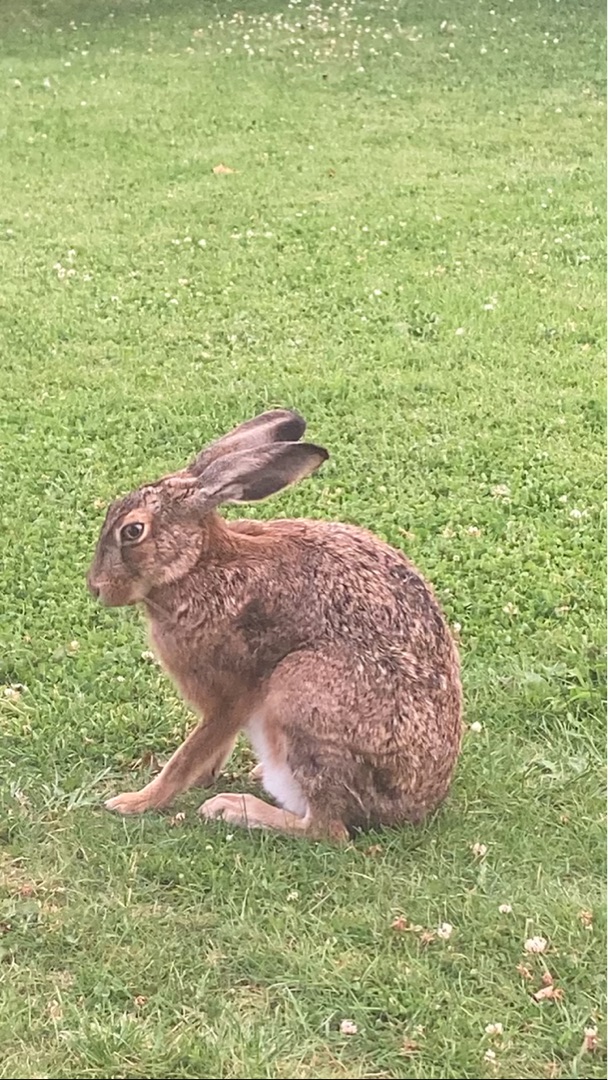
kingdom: Animalia
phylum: Chordata
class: Mammalia
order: Lagomorpha
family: Leporidae
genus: Lepus
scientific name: Lepus europaeus
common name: Hare
